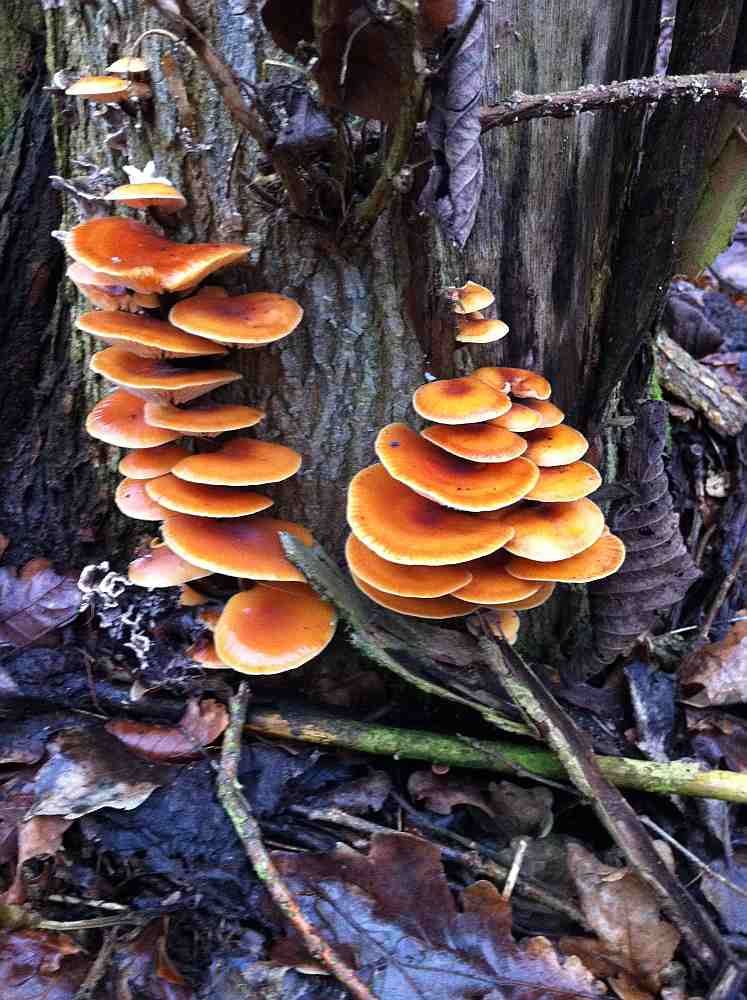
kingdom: Fungi
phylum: Basidiomycota
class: Agaricomycetes
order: Agaricales
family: Physalacriaceae
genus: Flammulina
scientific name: Flammulina velutipes
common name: gul fløjlsfod
